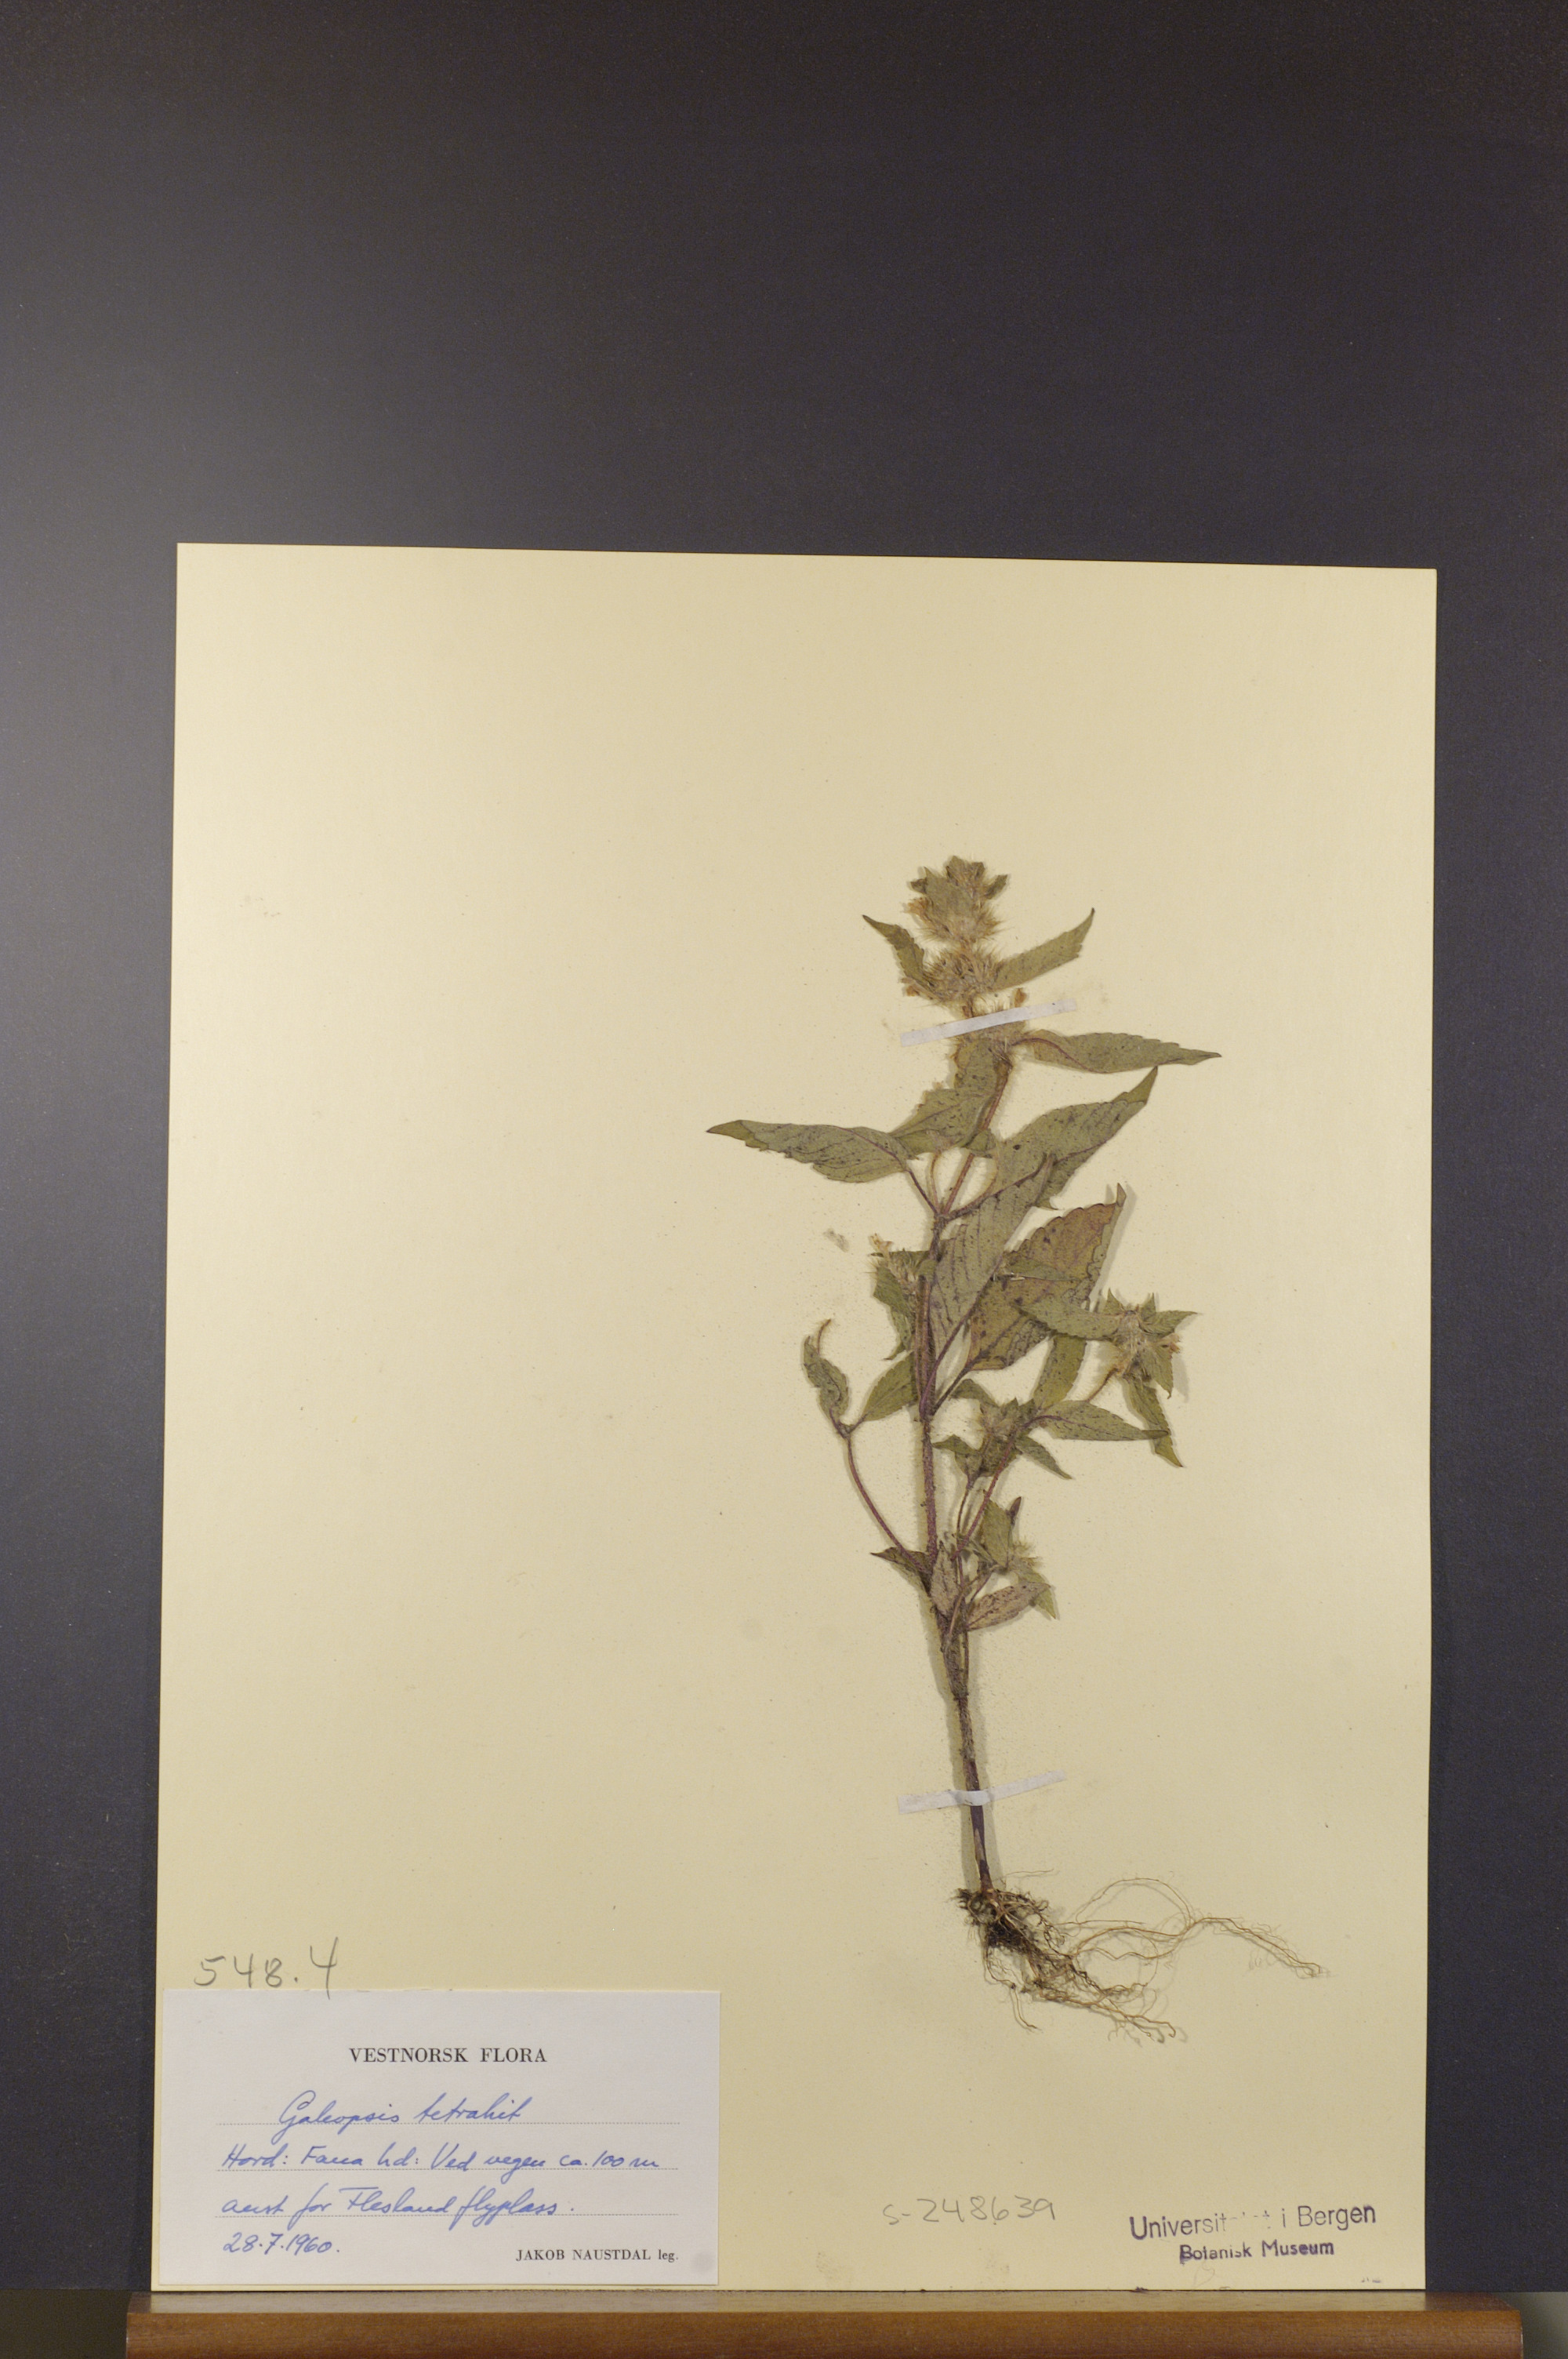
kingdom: Plantae
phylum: Tracheophyta
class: Magnoliopsida
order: Lamiales
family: Lamiaceae
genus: Galeopsis
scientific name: Galeopsis tetrahit
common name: Common hemp-nettle
